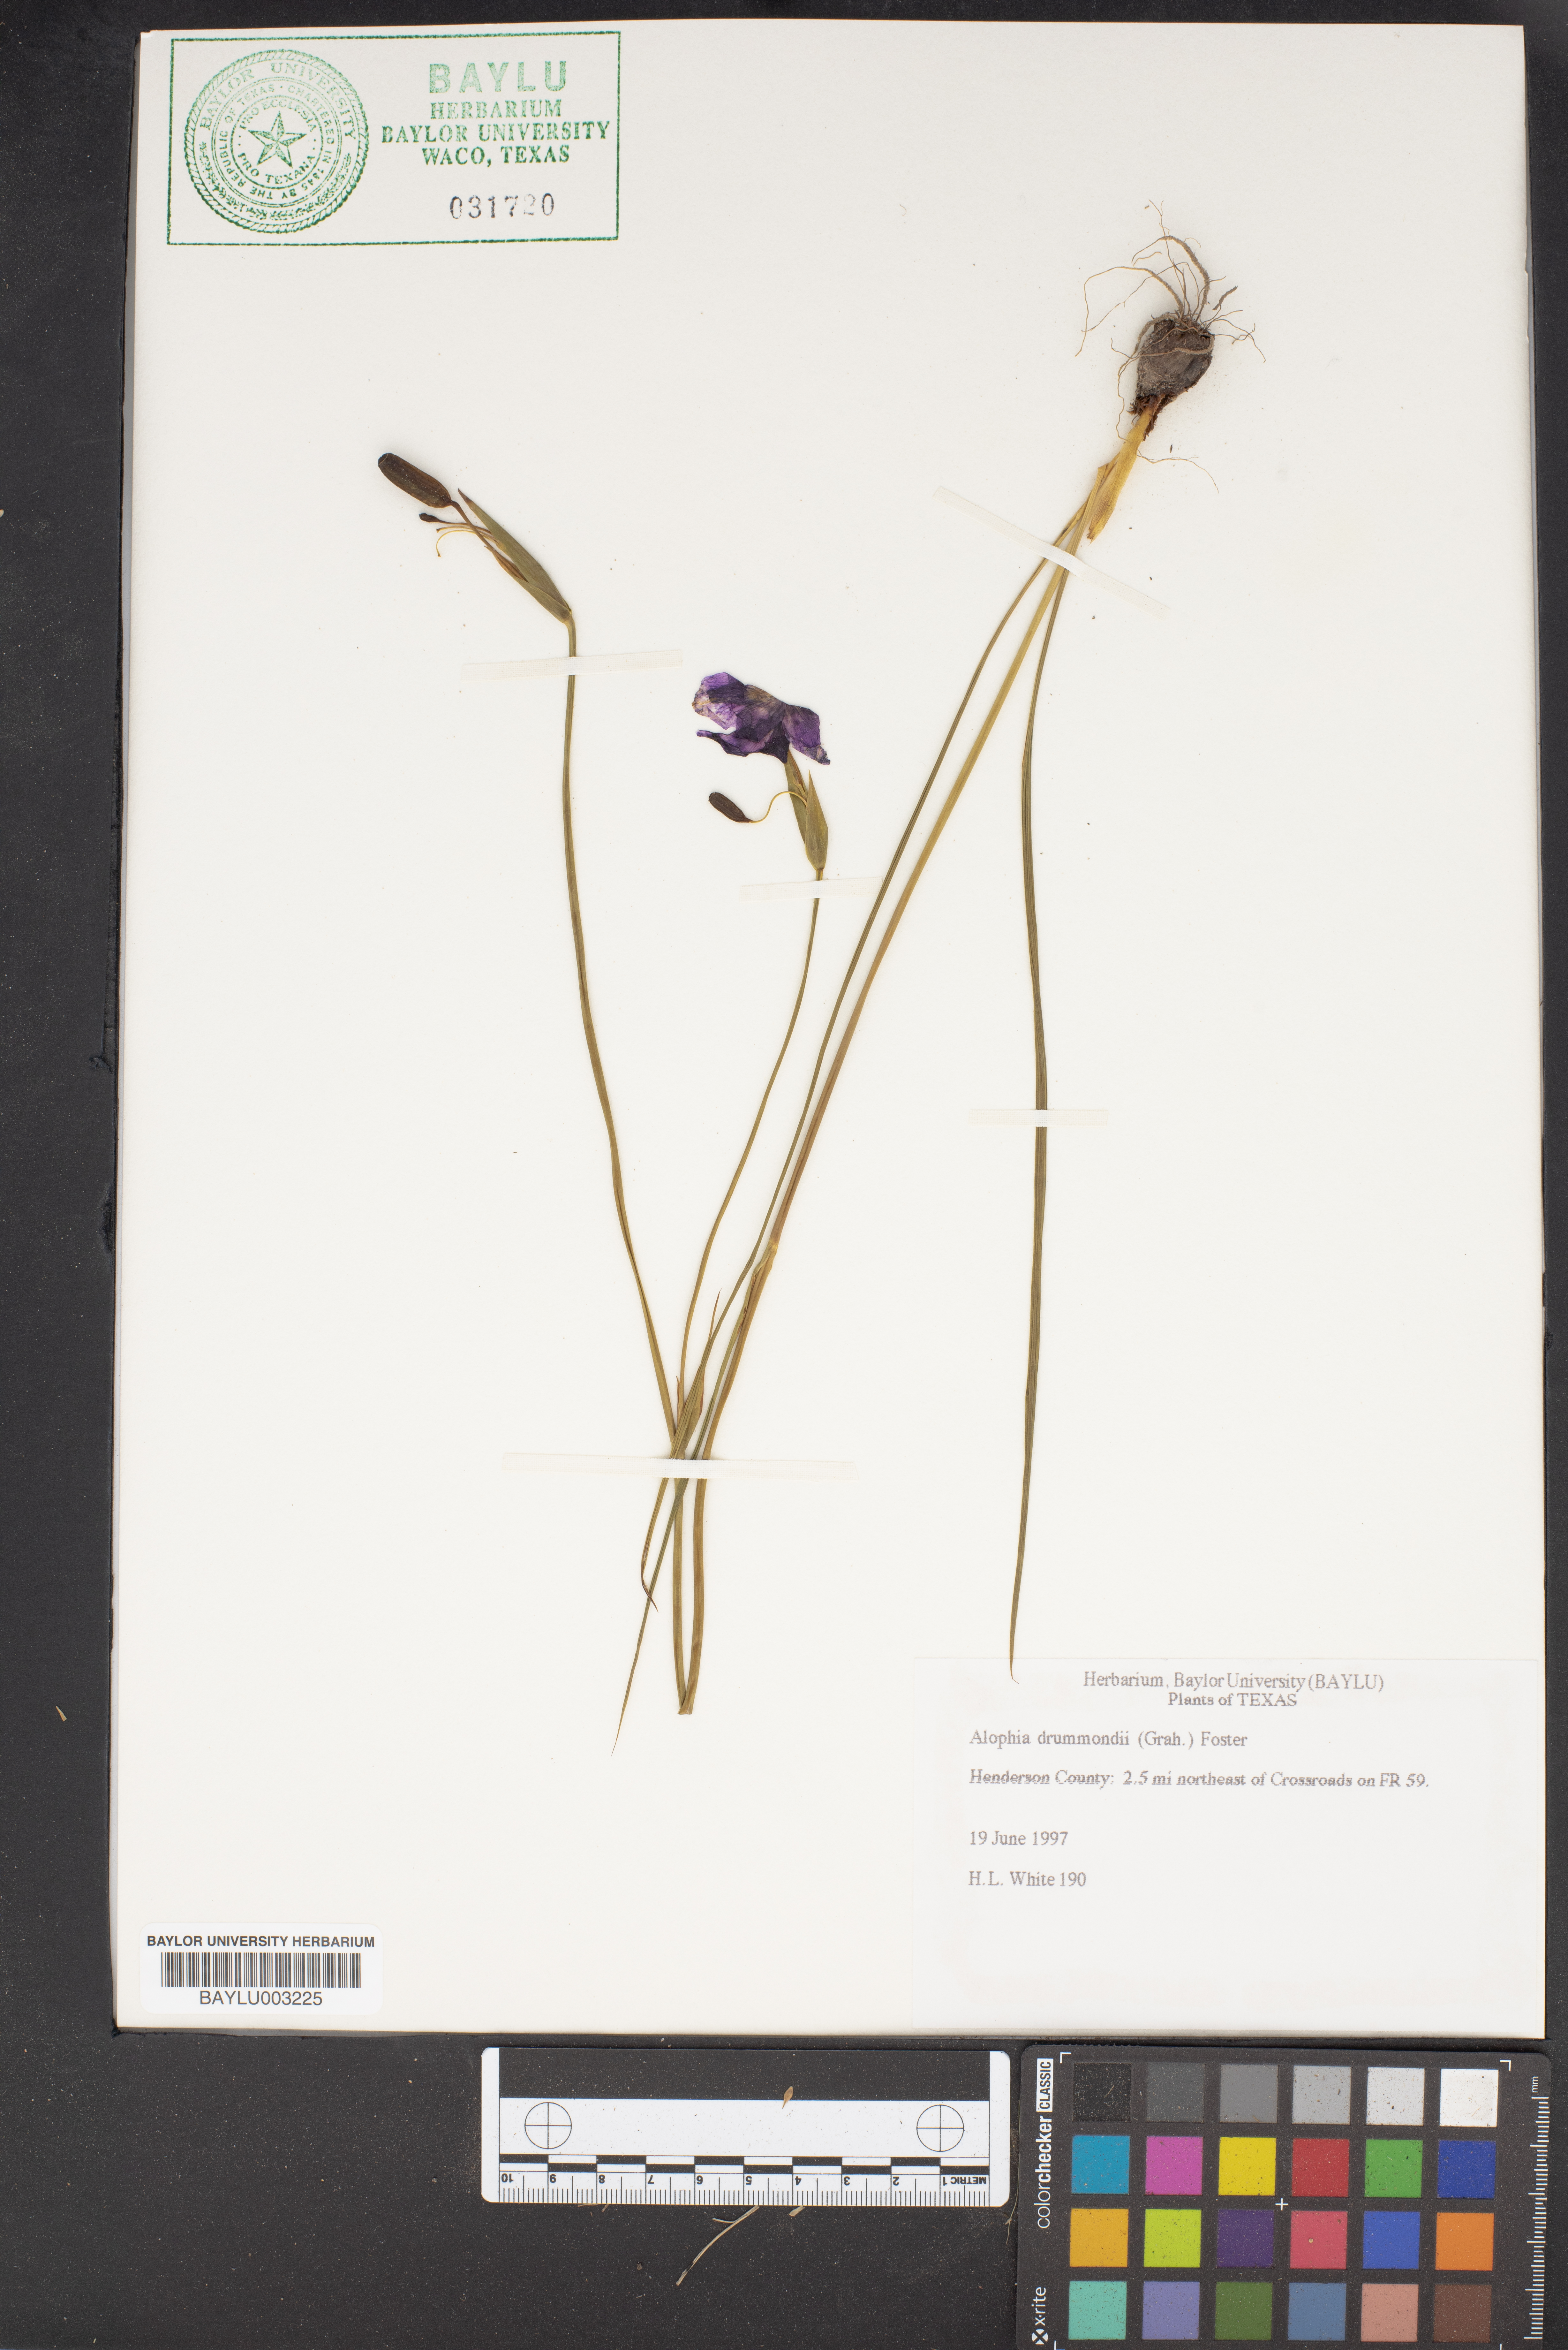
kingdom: Plantae
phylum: Tracheophyta
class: Liliopsida
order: Asparagales
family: Iridaceae
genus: Alophia
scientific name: Alophia drummondii
